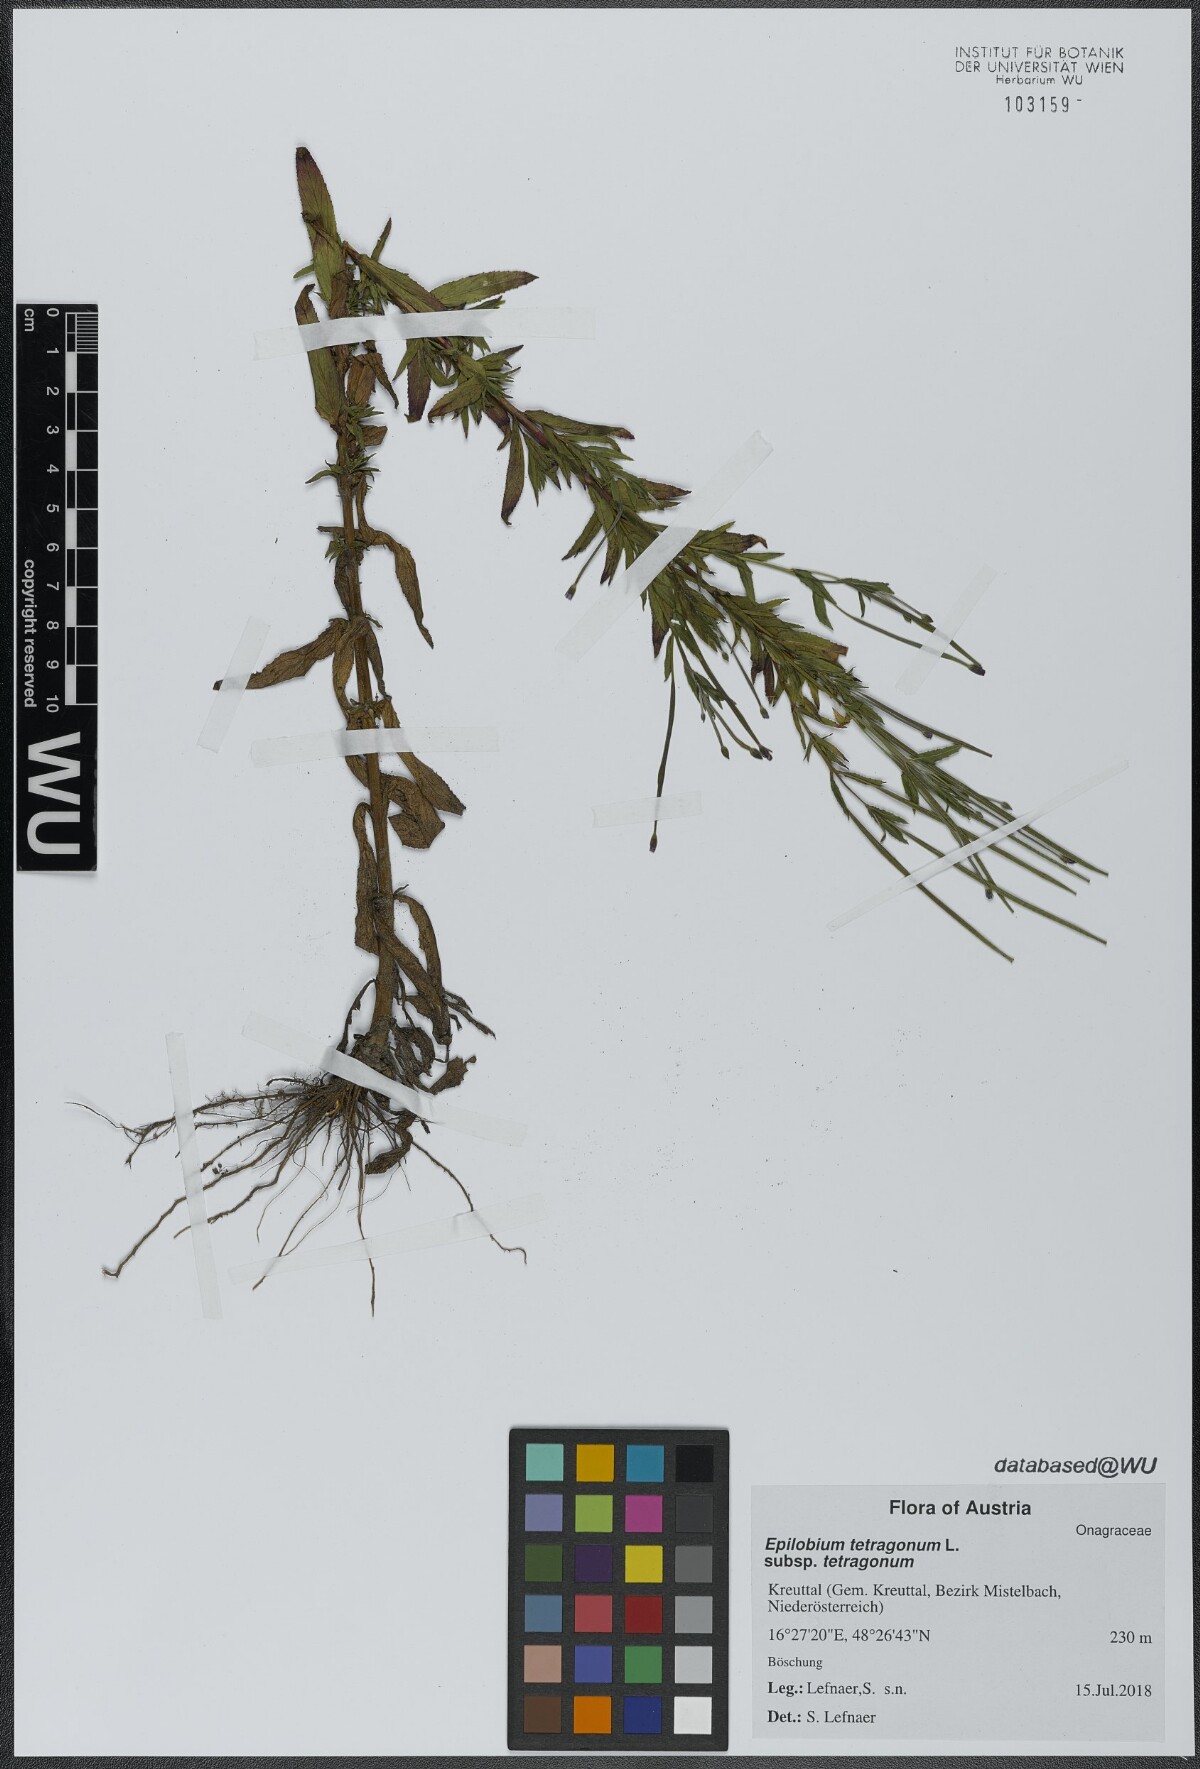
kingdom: Plantae
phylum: Tracheophyta
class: Magnoliopsida
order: Myrtales
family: Onagraceae
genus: Epilobium
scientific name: Epilobium tetragonum
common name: Square-stemmed willowherb
